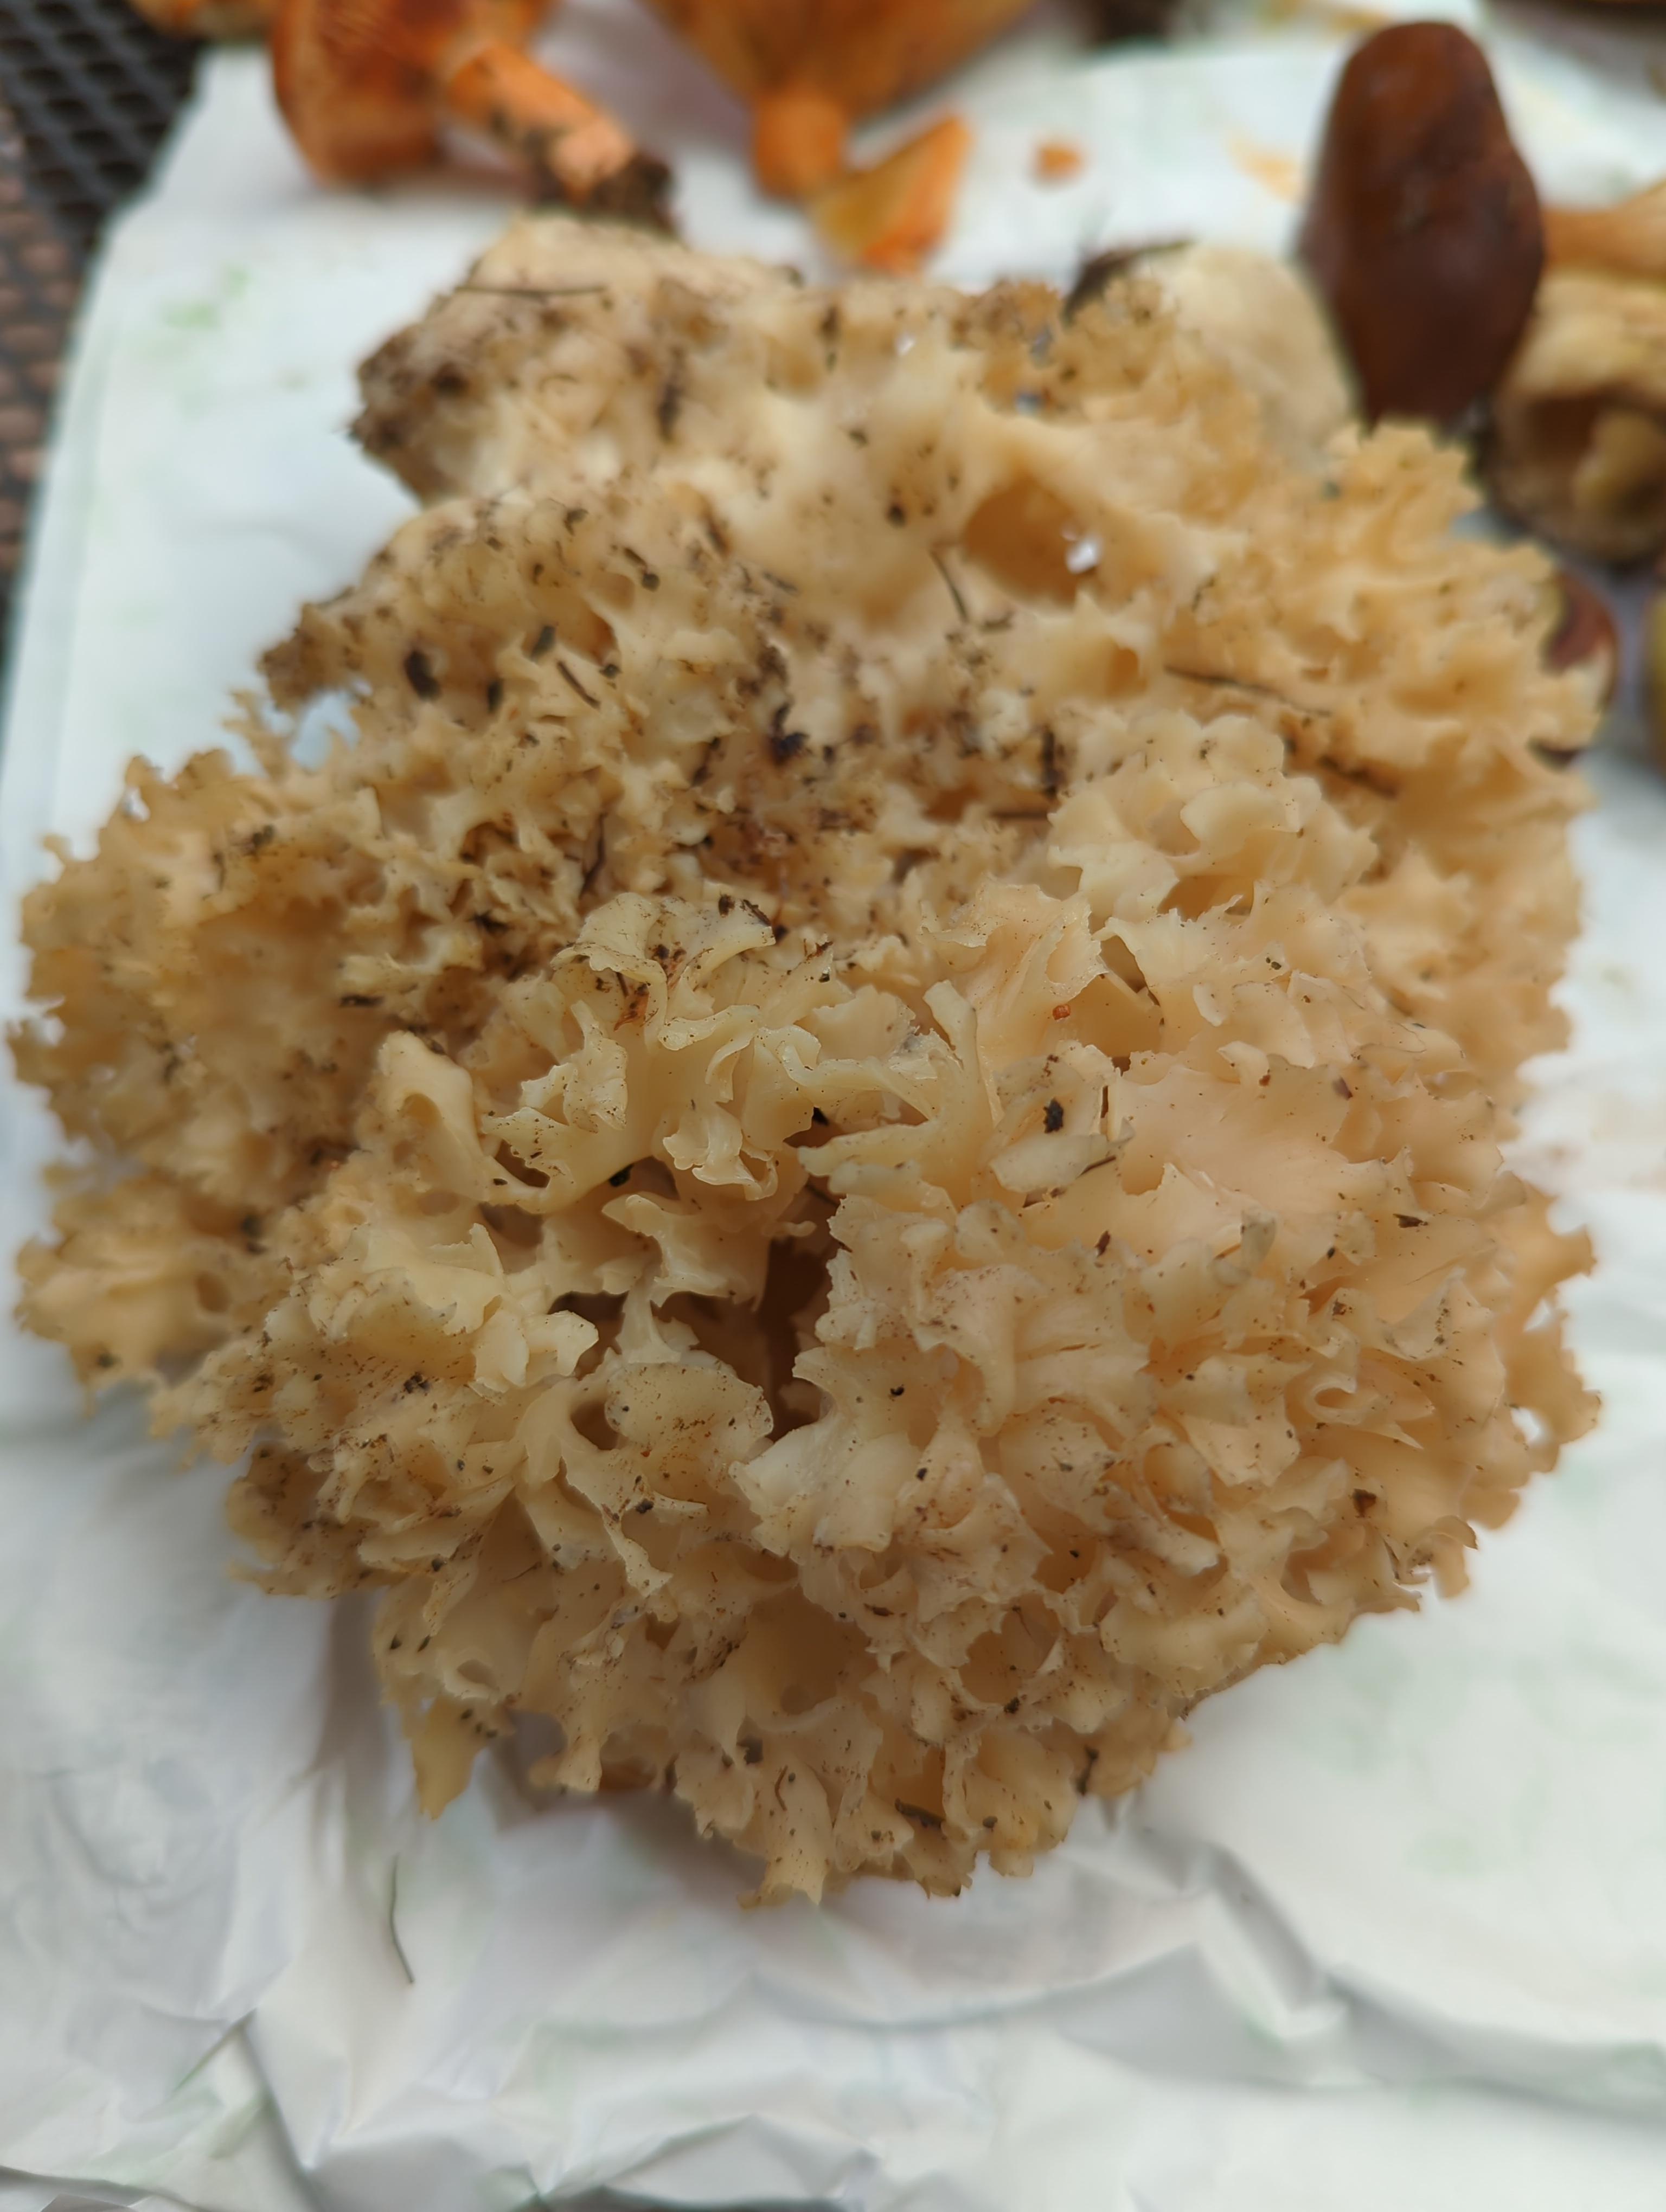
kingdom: Fungi
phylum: Basidiomycota
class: Agaricomycetes
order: Polyporales
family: Sparassidaceae
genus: Sparassis
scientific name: Sparassis crispa
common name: kruset blomkålssvamp
